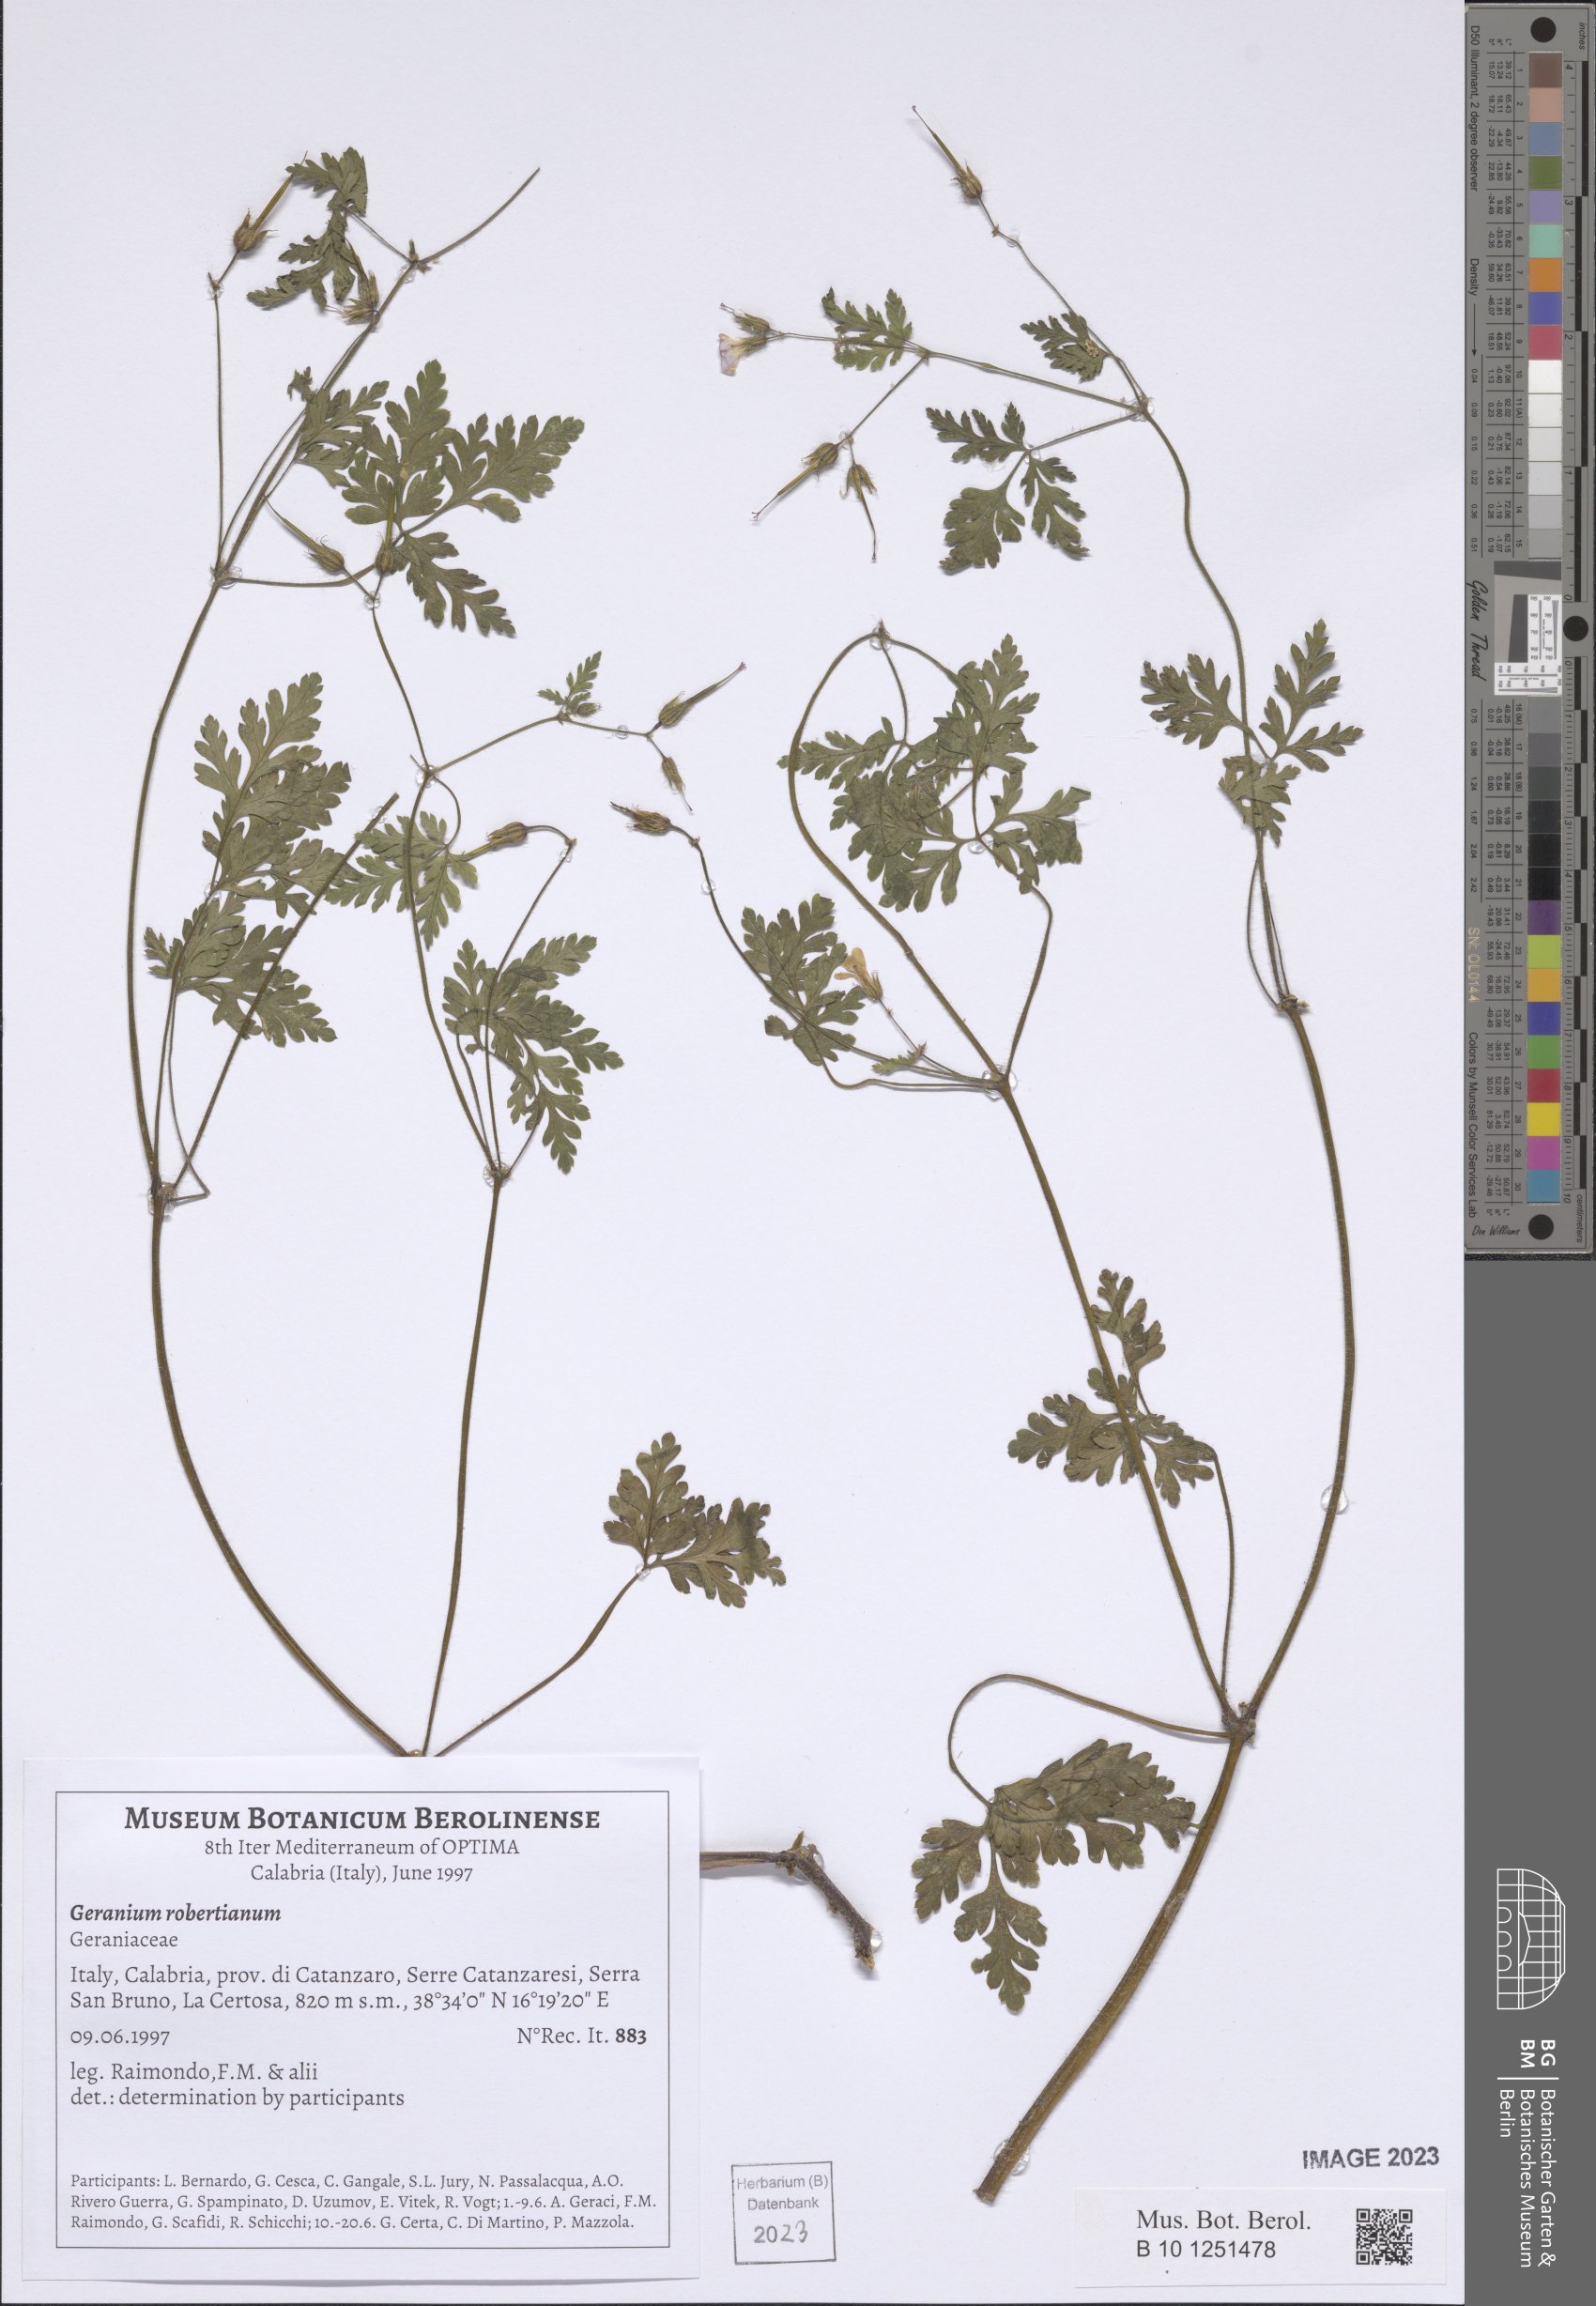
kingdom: Plantae
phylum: Tracheophyta
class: Magnoliopsida
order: Geraniales
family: Geraniaceae
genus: Geranium
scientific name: Geranium robertianum
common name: Herb-robert
